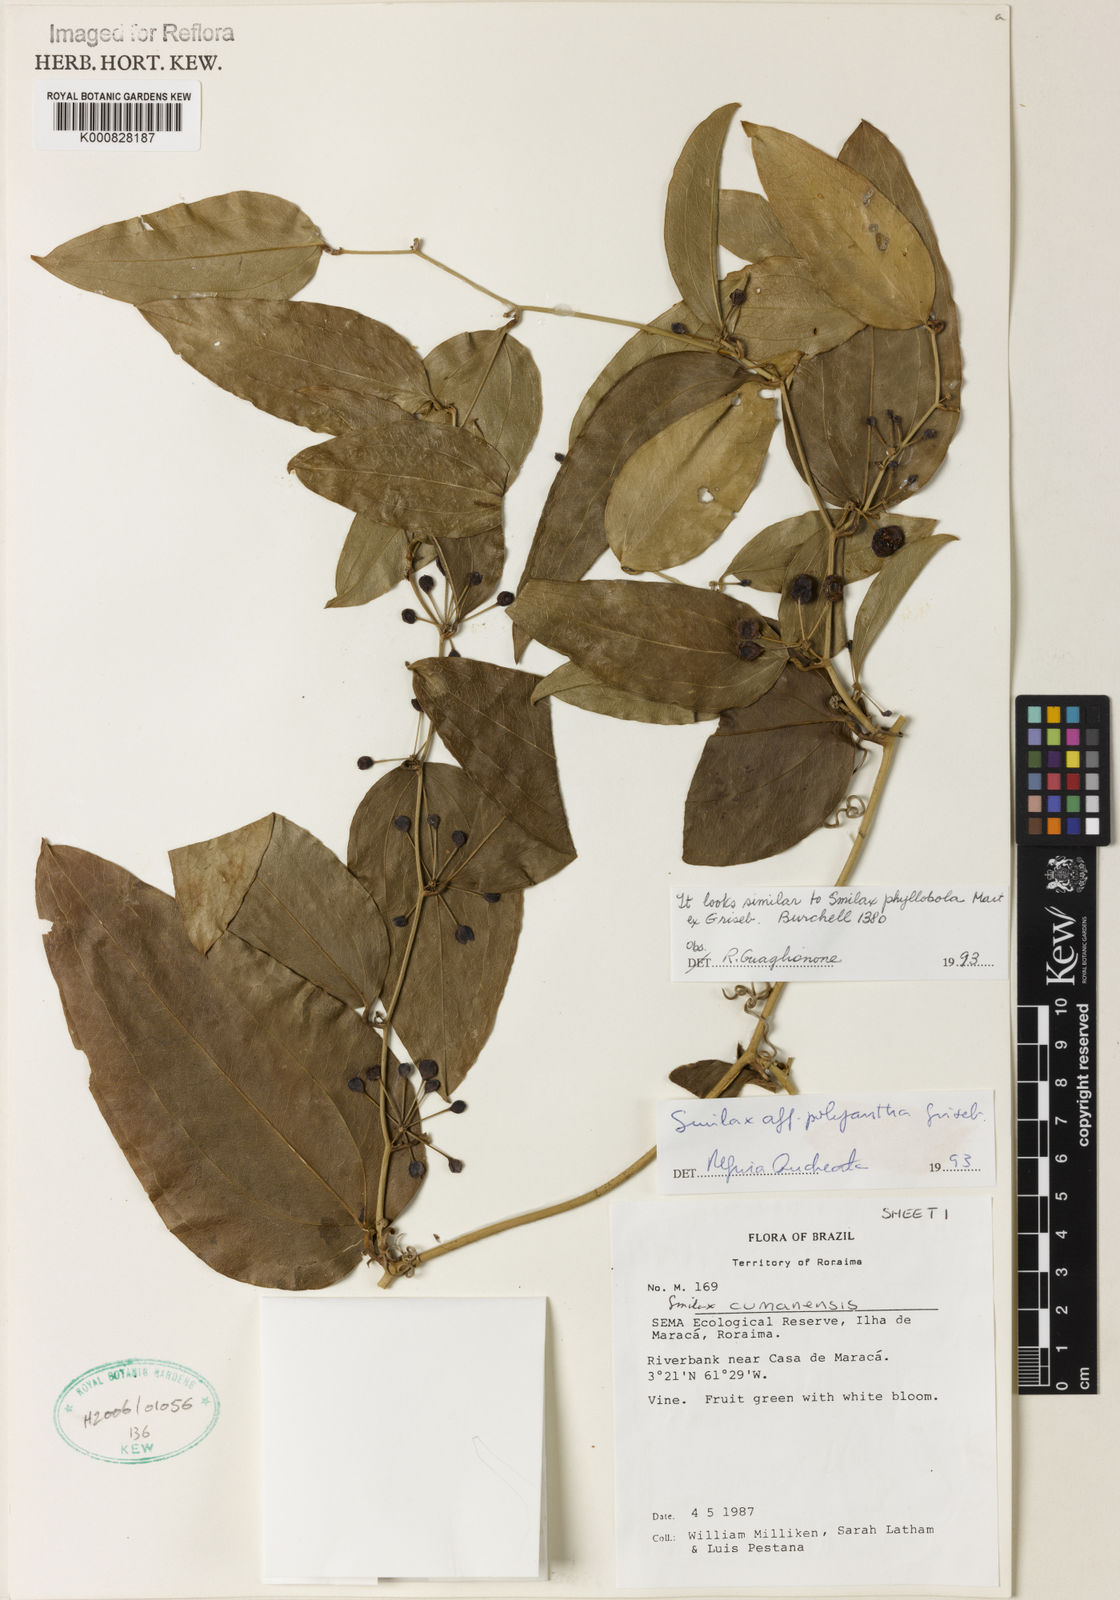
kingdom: Plantae
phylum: Tracheophyta
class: Liliopsida
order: Liliales
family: Smilacaceae
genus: Smilax
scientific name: Smilax oblongata
